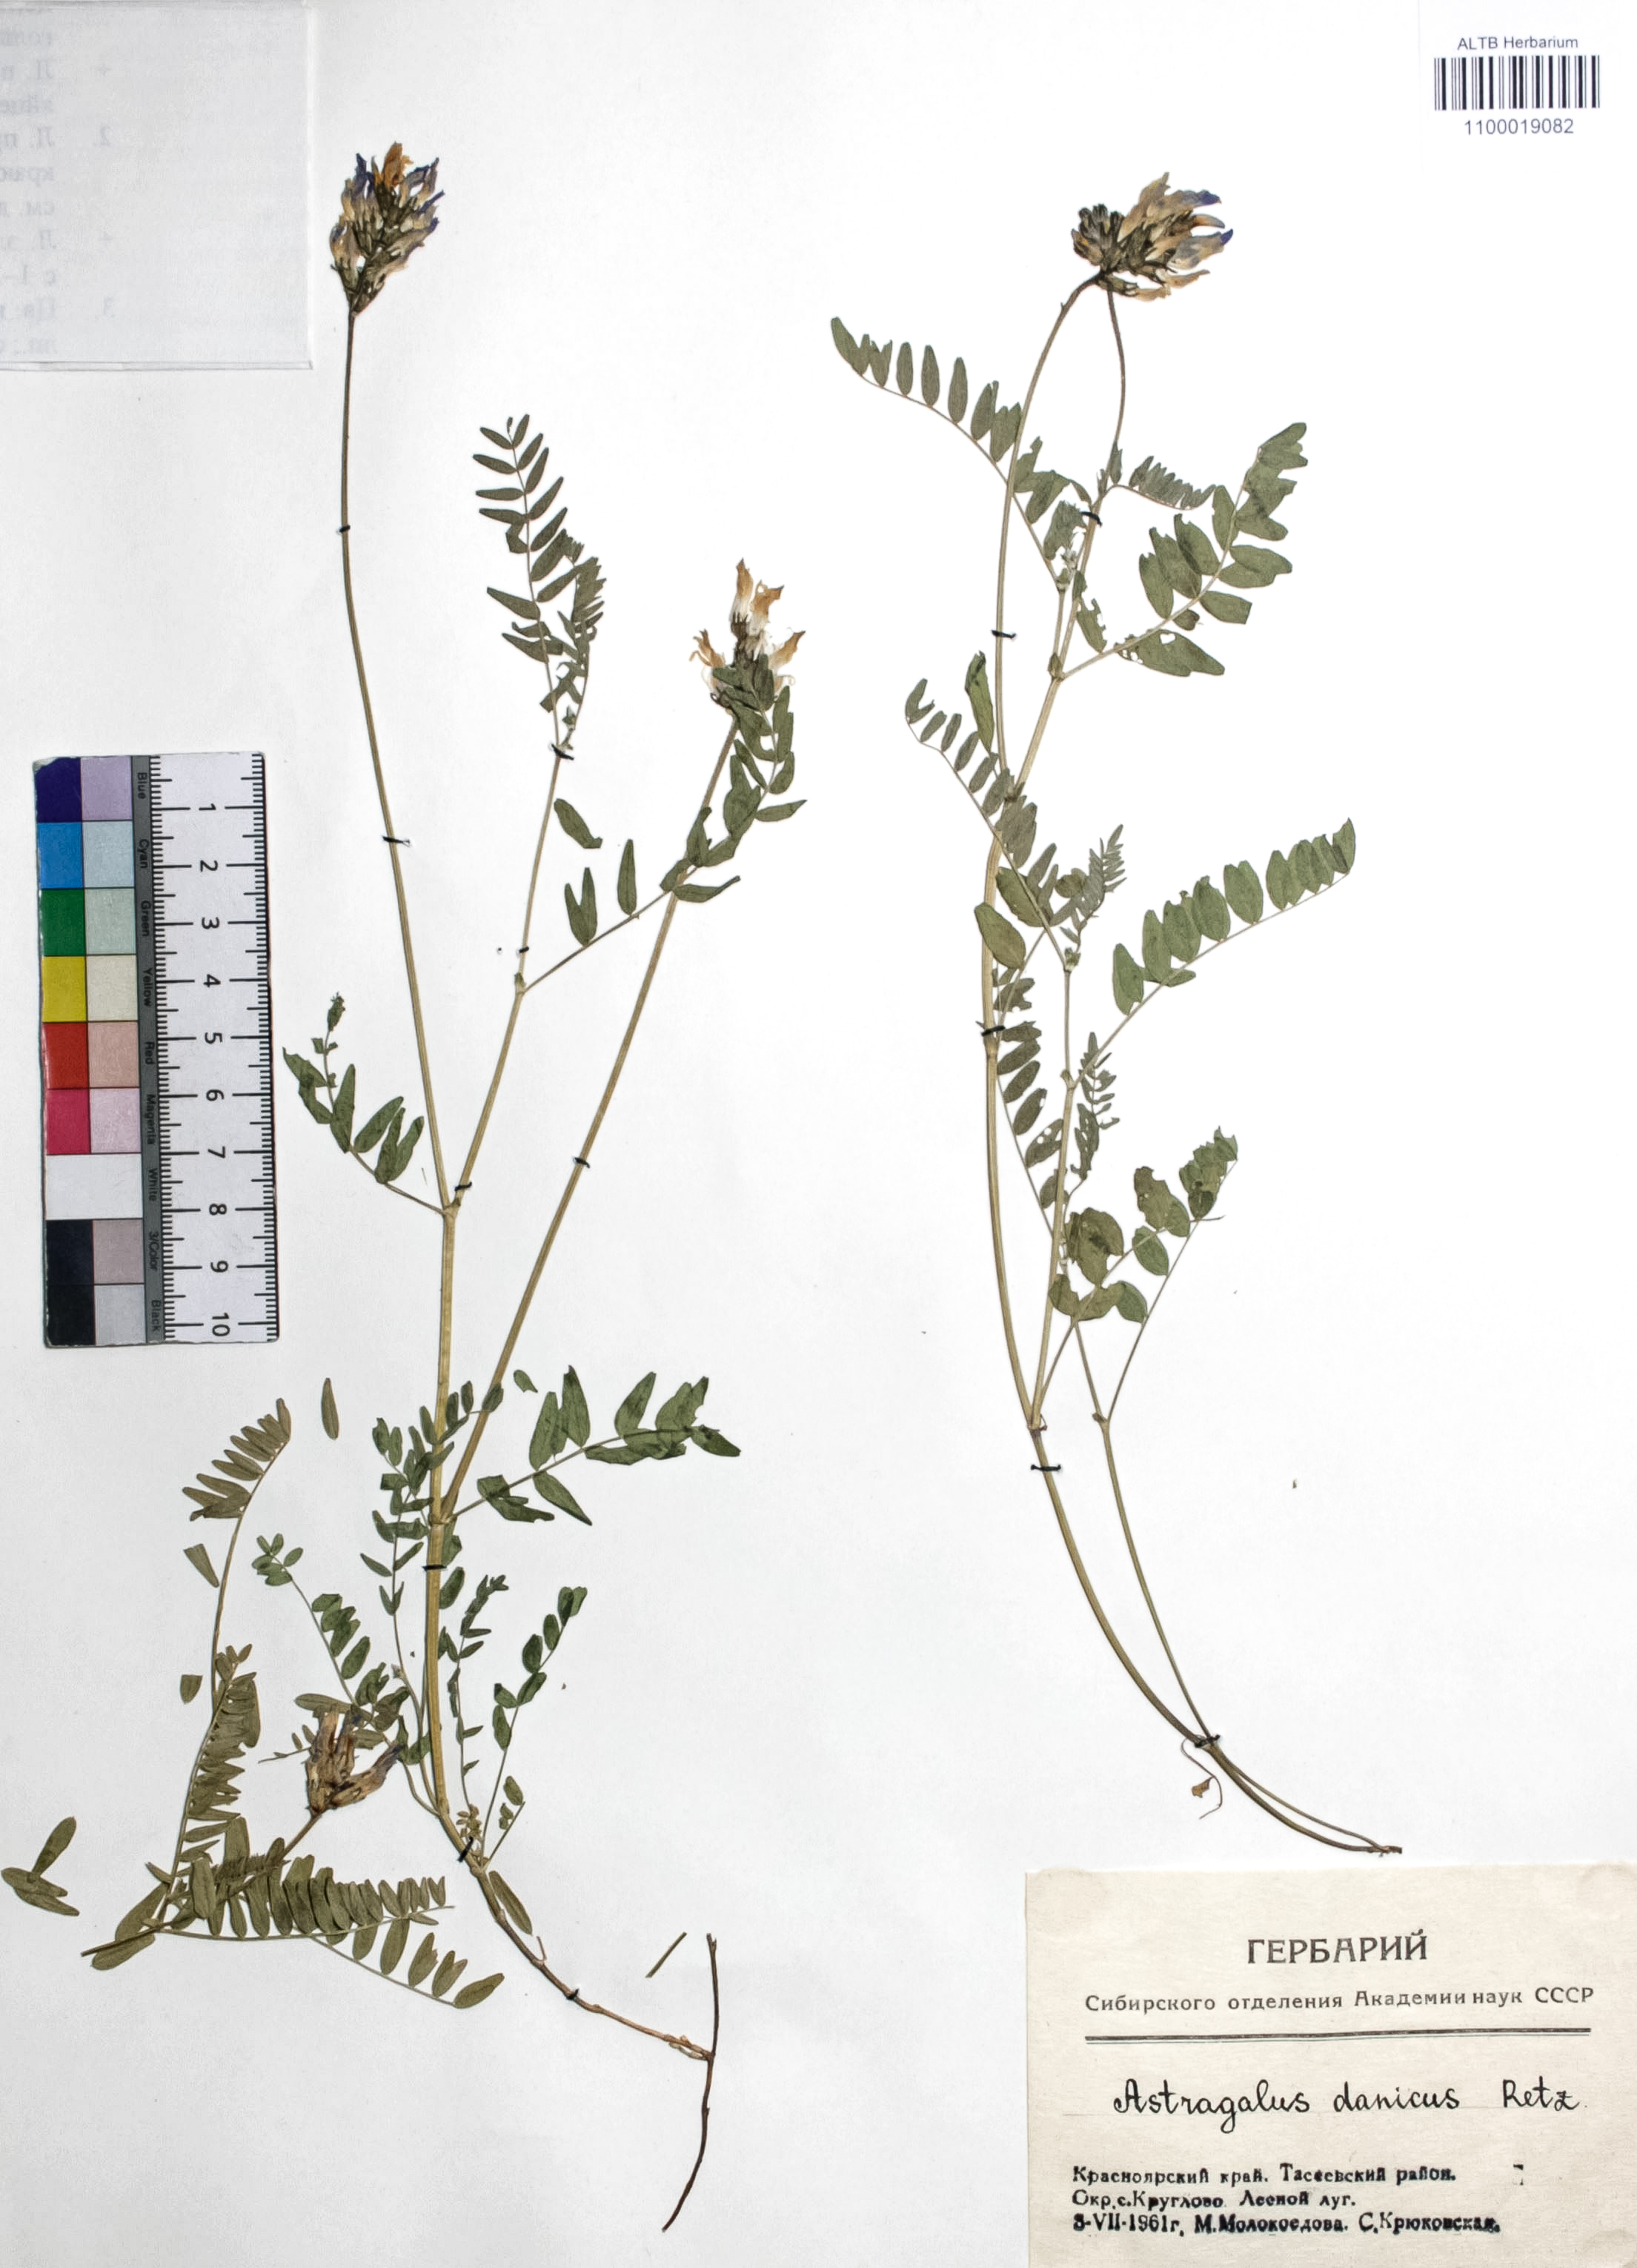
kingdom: Plantae
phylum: Tracheophyta
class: Magnoliopsida
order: Fabales
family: Fabaceae
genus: Astragalus
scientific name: Astragalus danicus
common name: Purple milk-vetch
